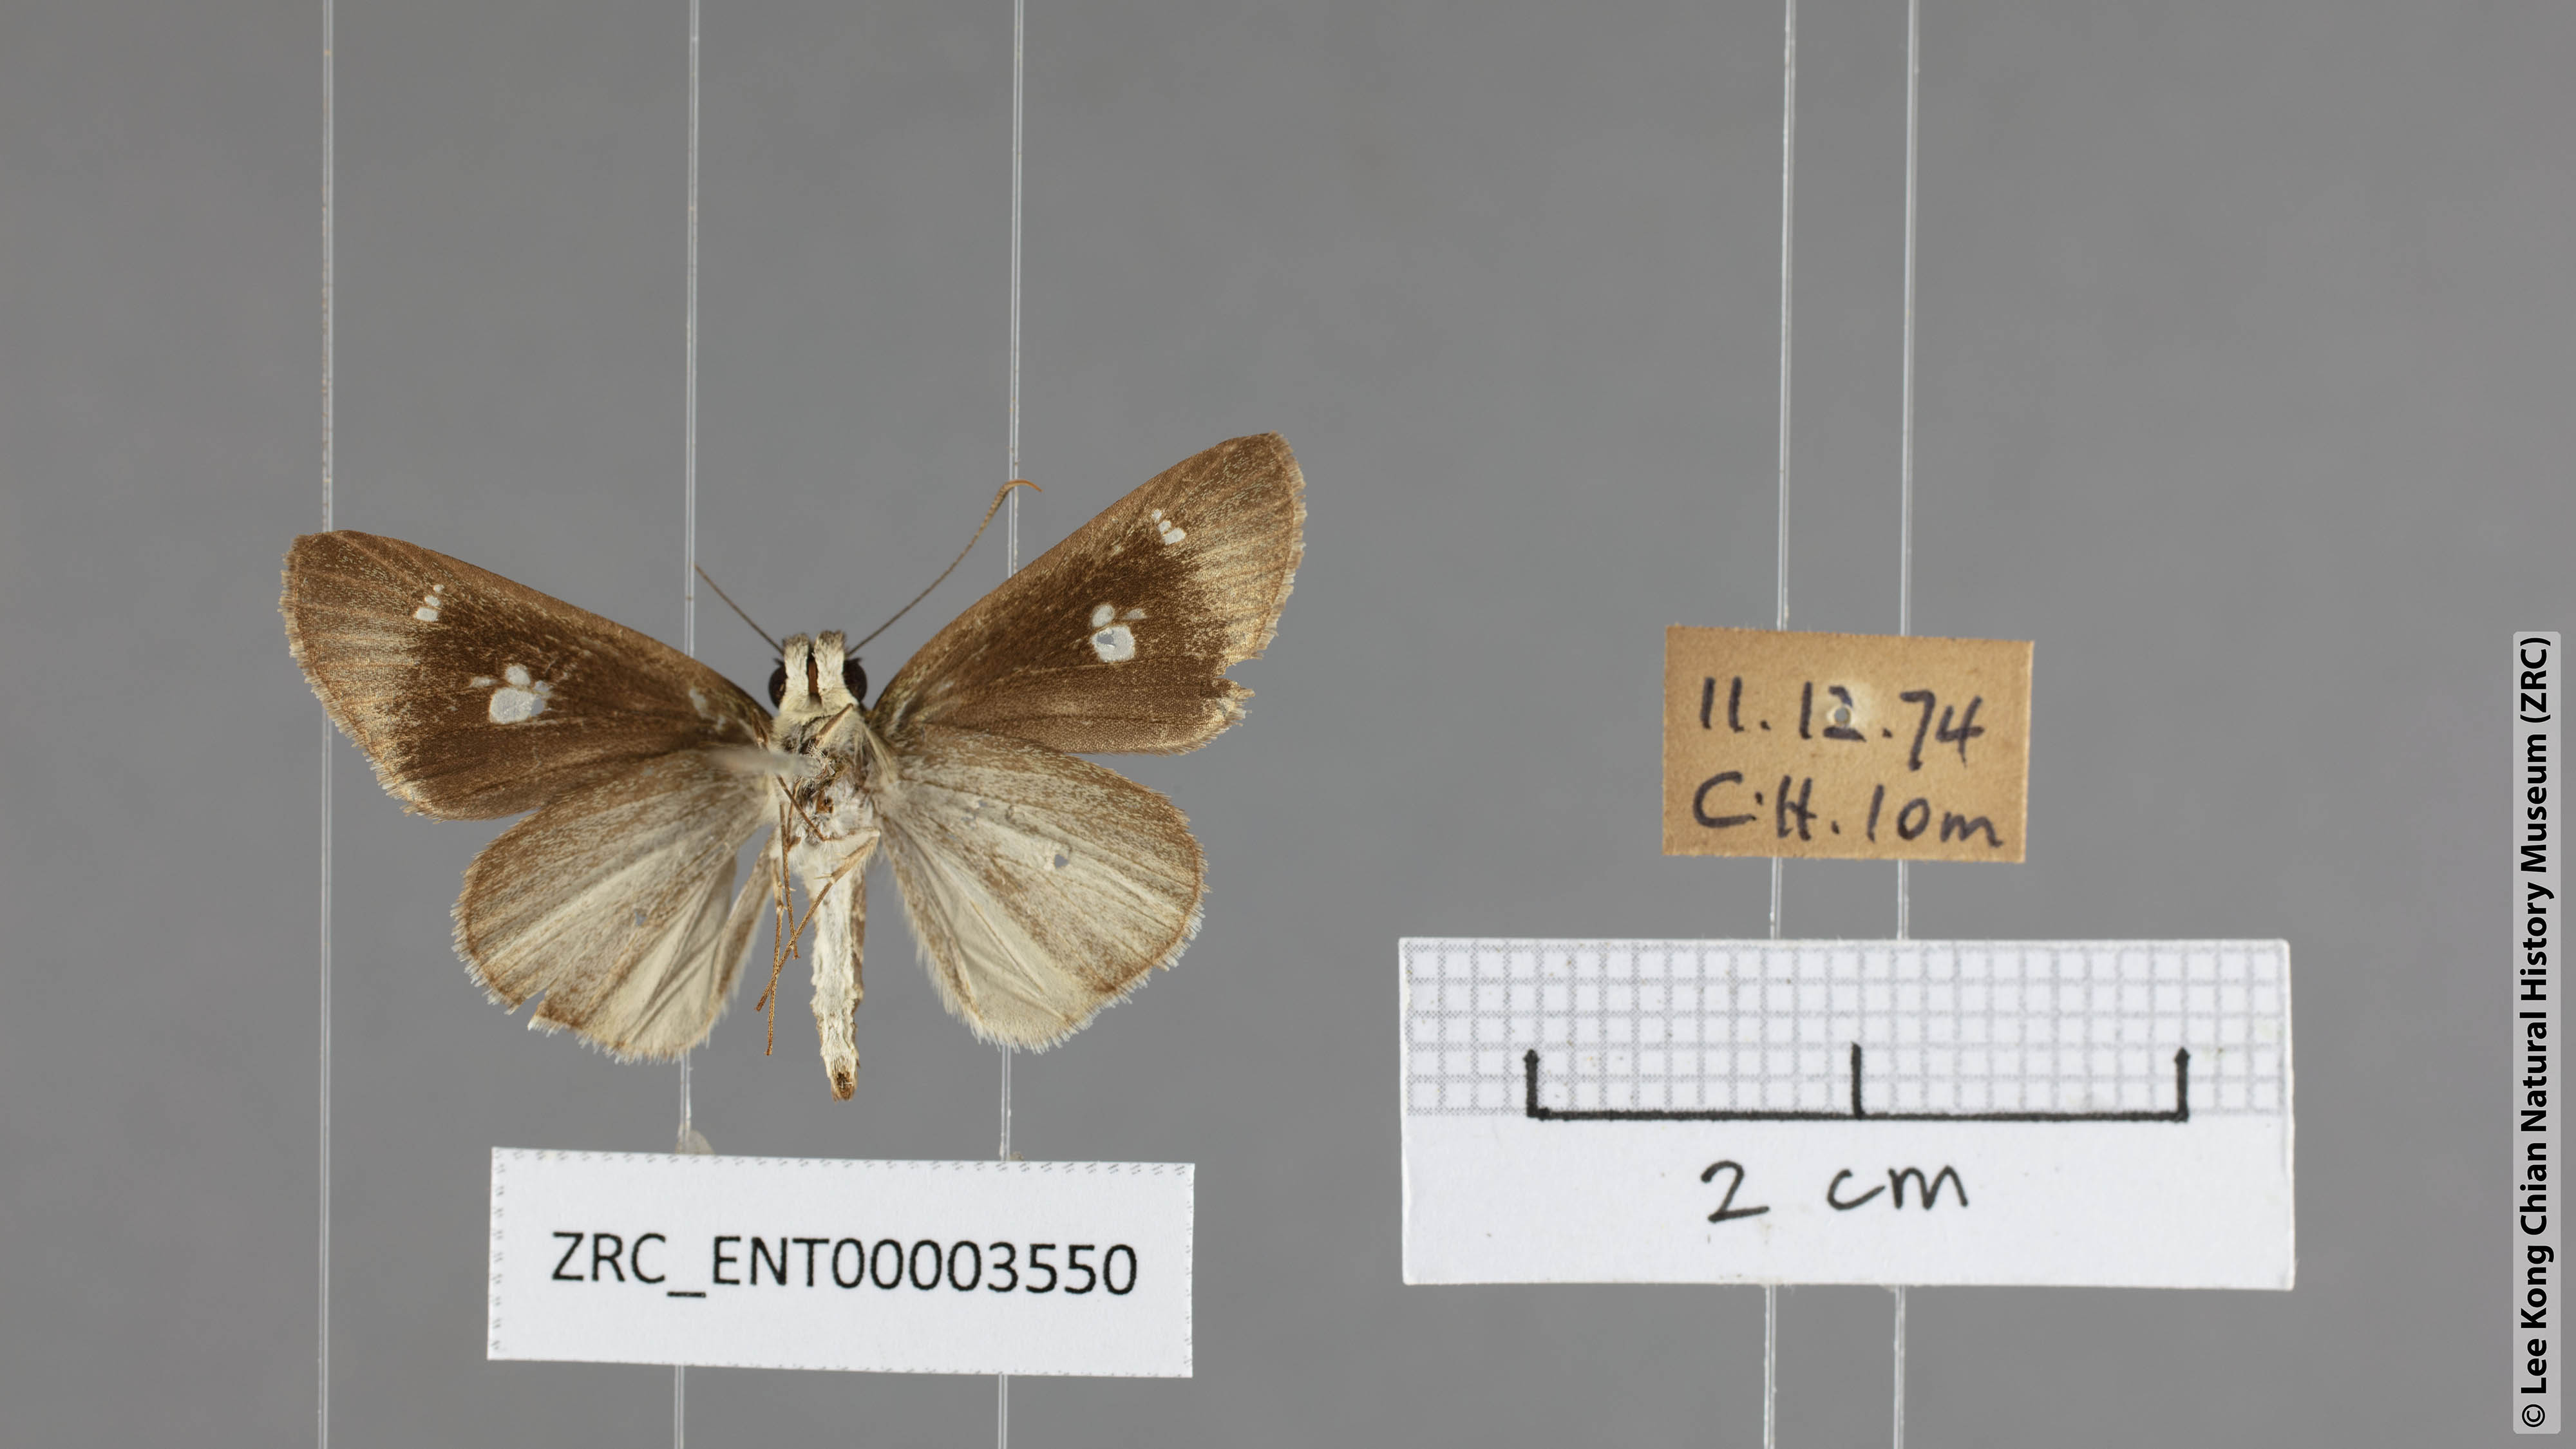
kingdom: Animalia
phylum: Arthropoda
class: Insecta
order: Lepidoptera
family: Hesperiidae
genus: Suada
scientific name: Suada swerga
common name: Grass bob
